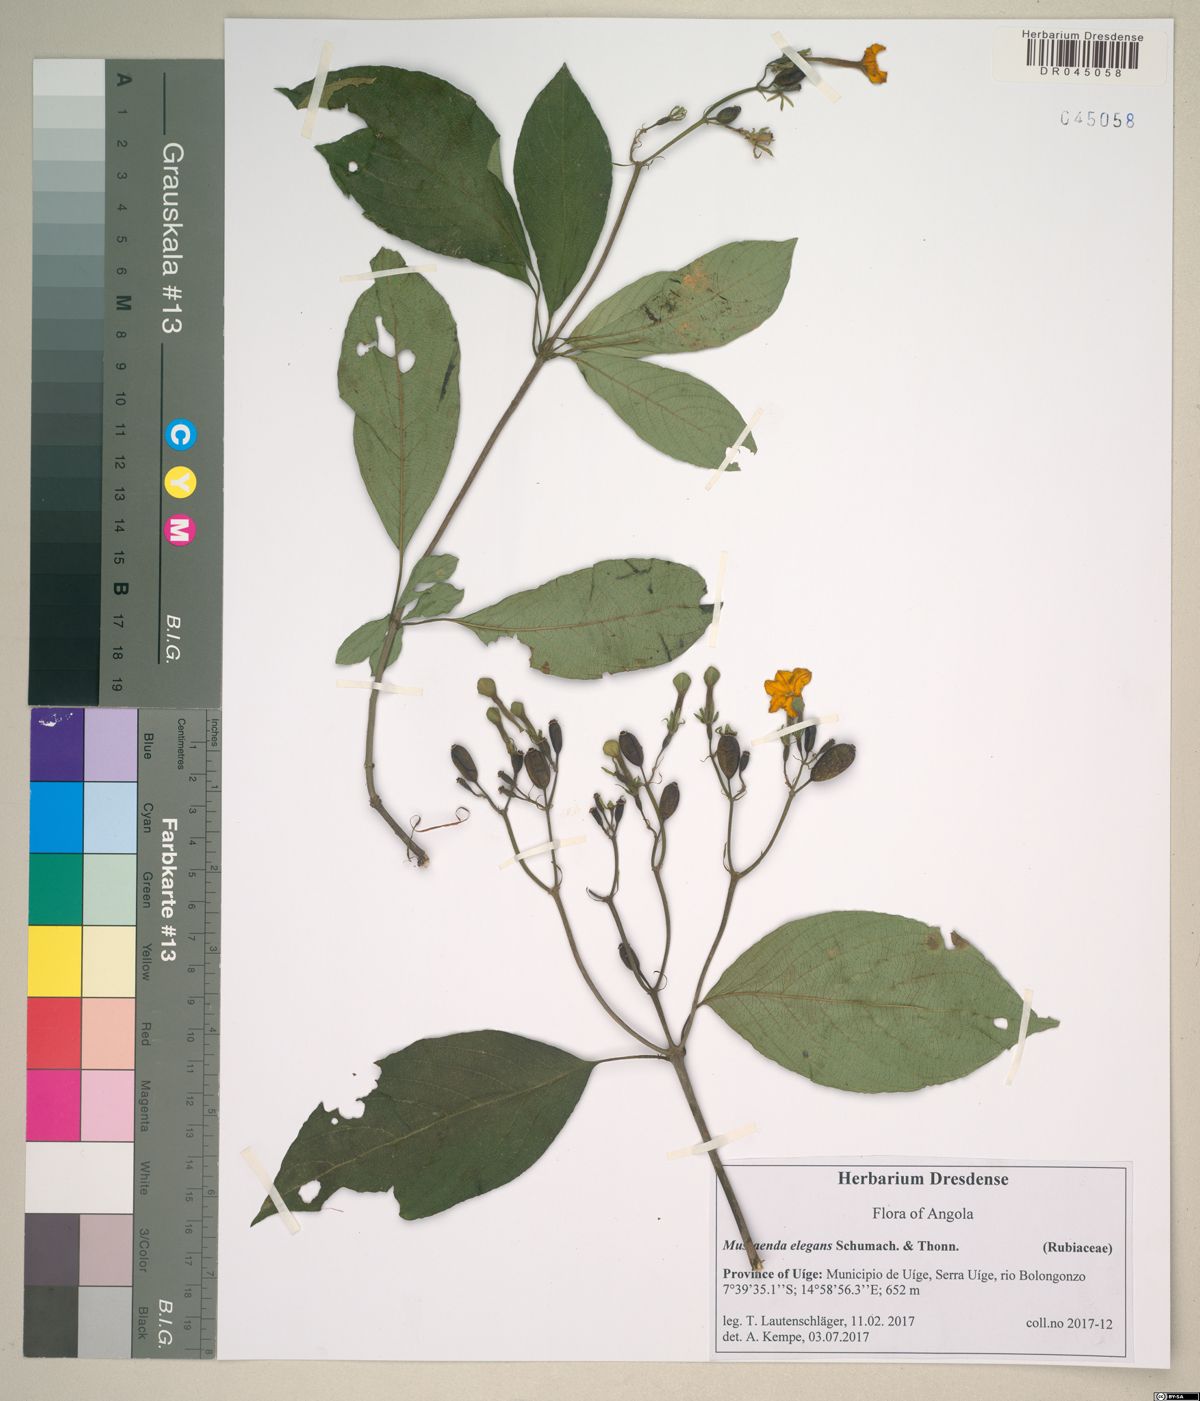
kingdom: Plantae
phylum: Tracheophyta
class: Magnoliopsida
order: Gentianales
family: Rubiaceae
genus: Mussaenda
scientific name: Mussaenda elegans
